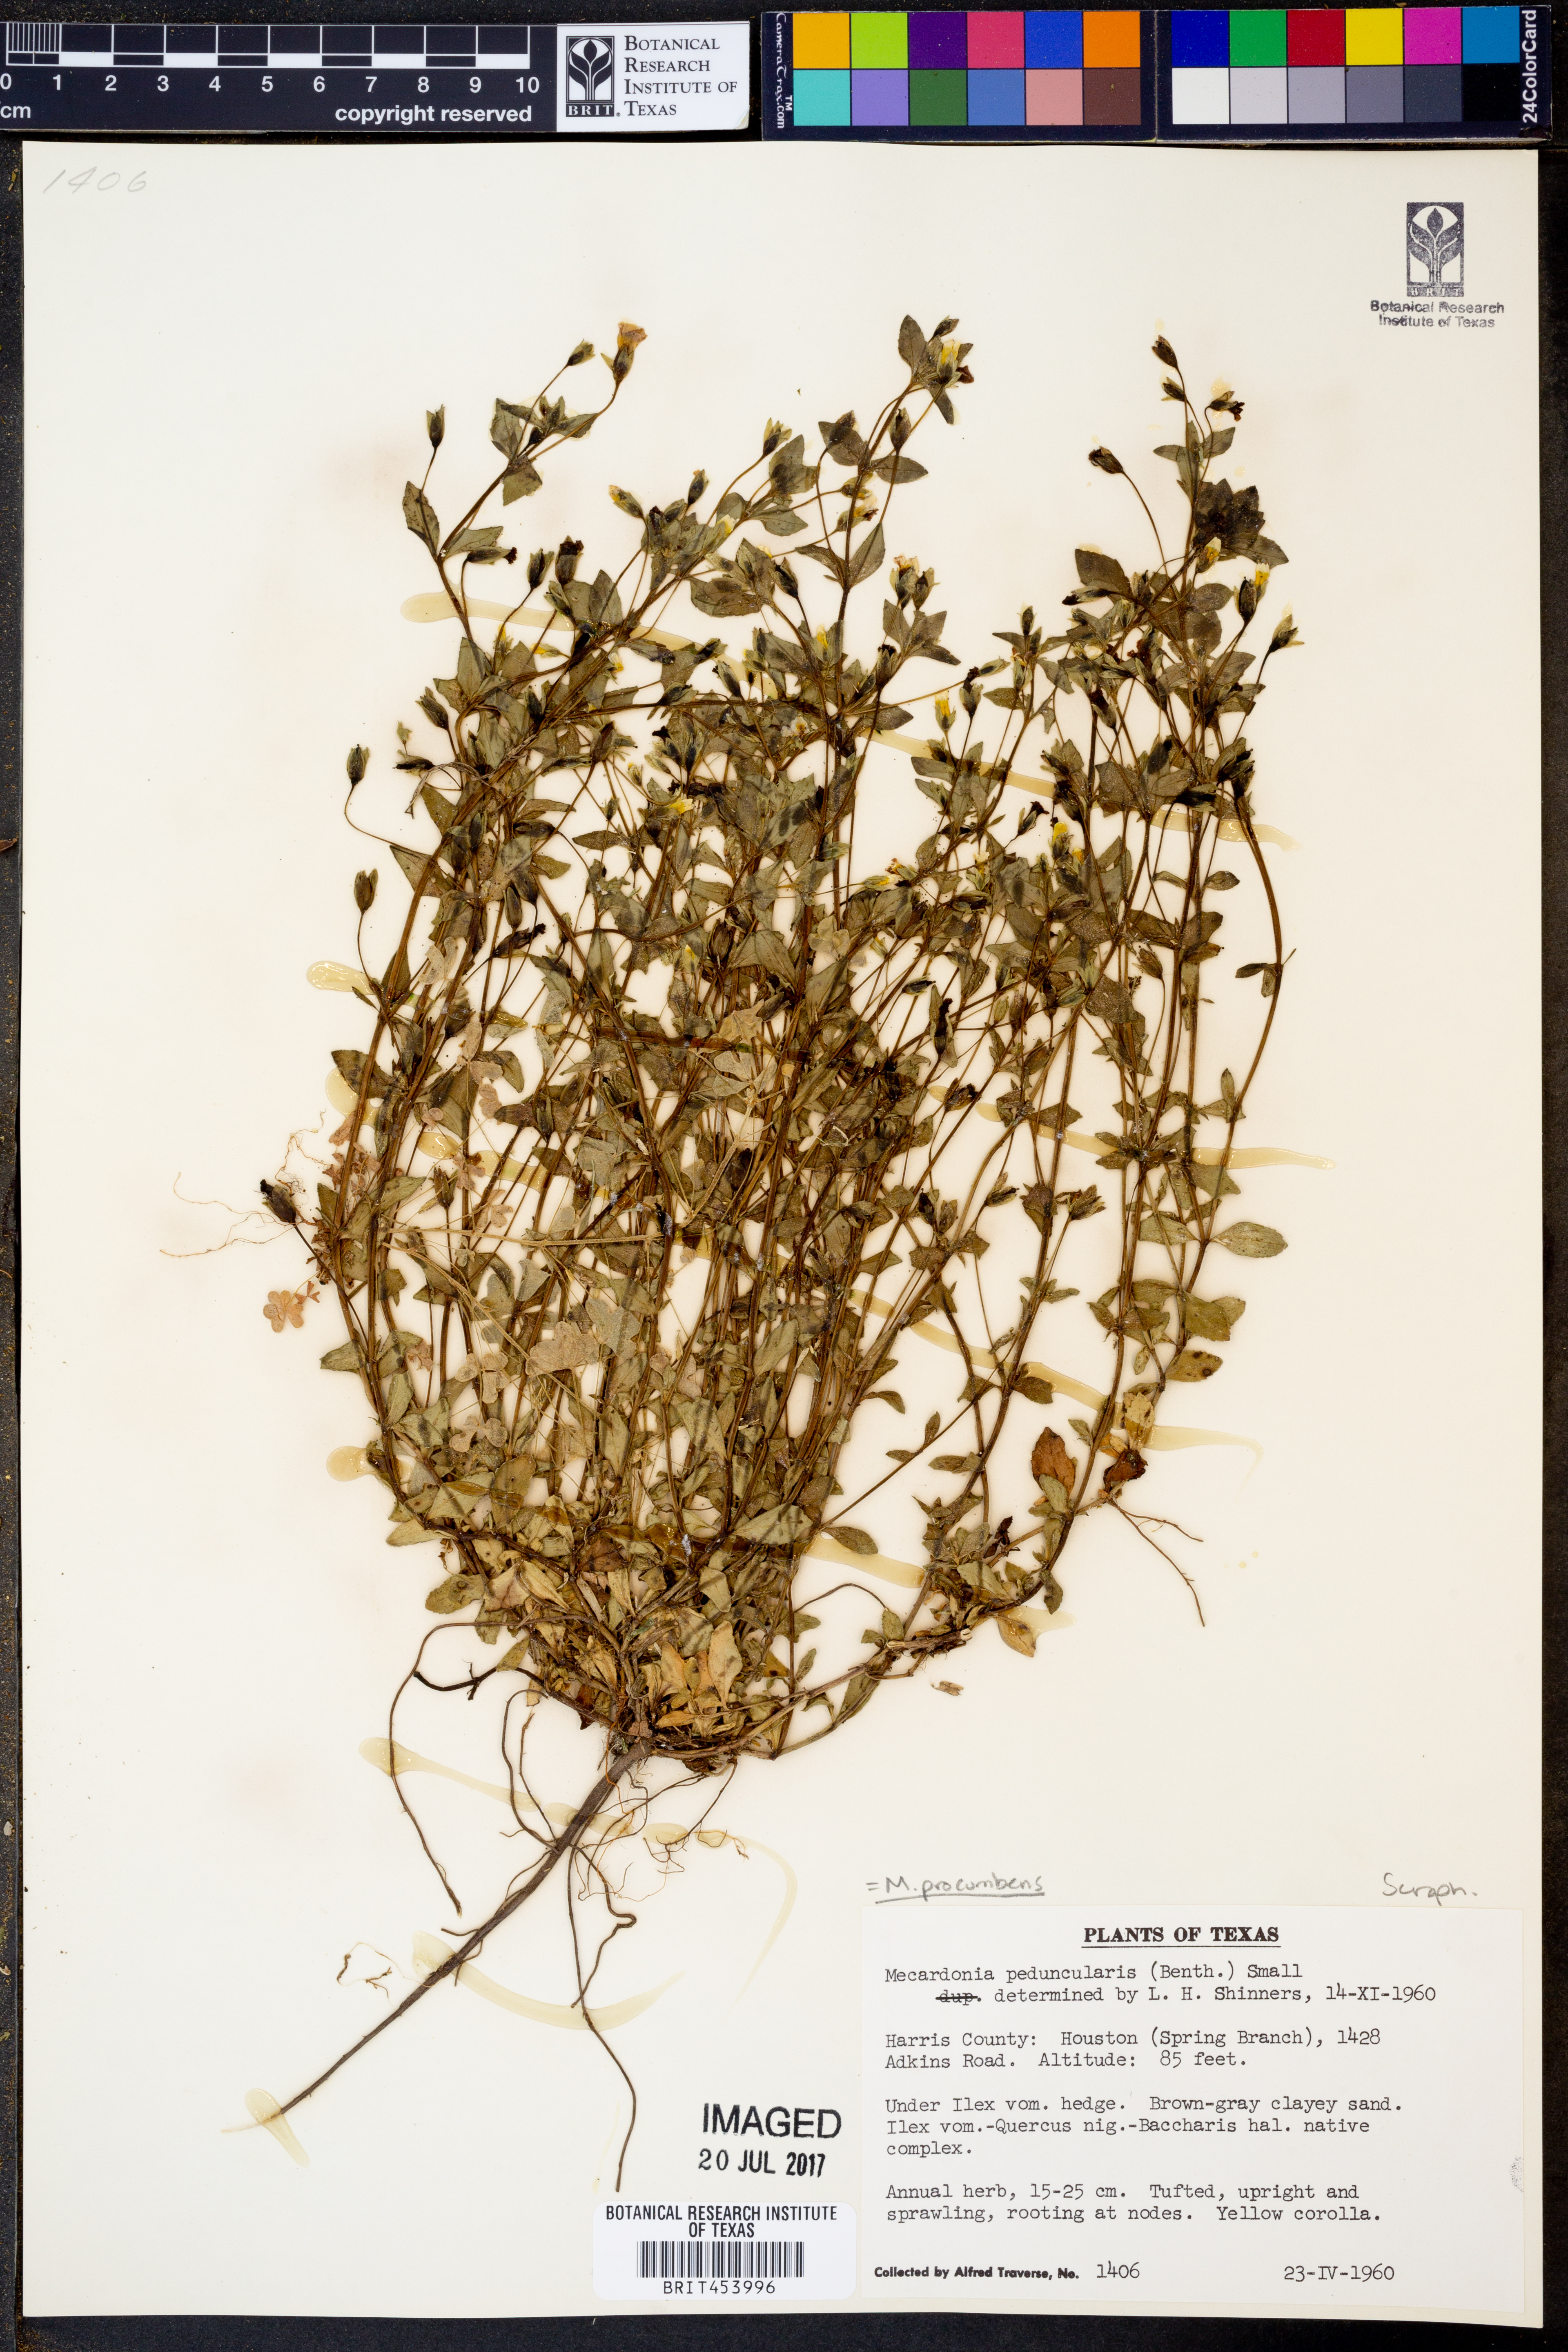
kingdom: Plantae
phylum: Tracheophyta
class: Magnoliopsida
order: Lamiales
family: Plantaginaceae
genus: Mecardonia
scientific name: Mecardonia procumbens
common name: Baby jump-up
